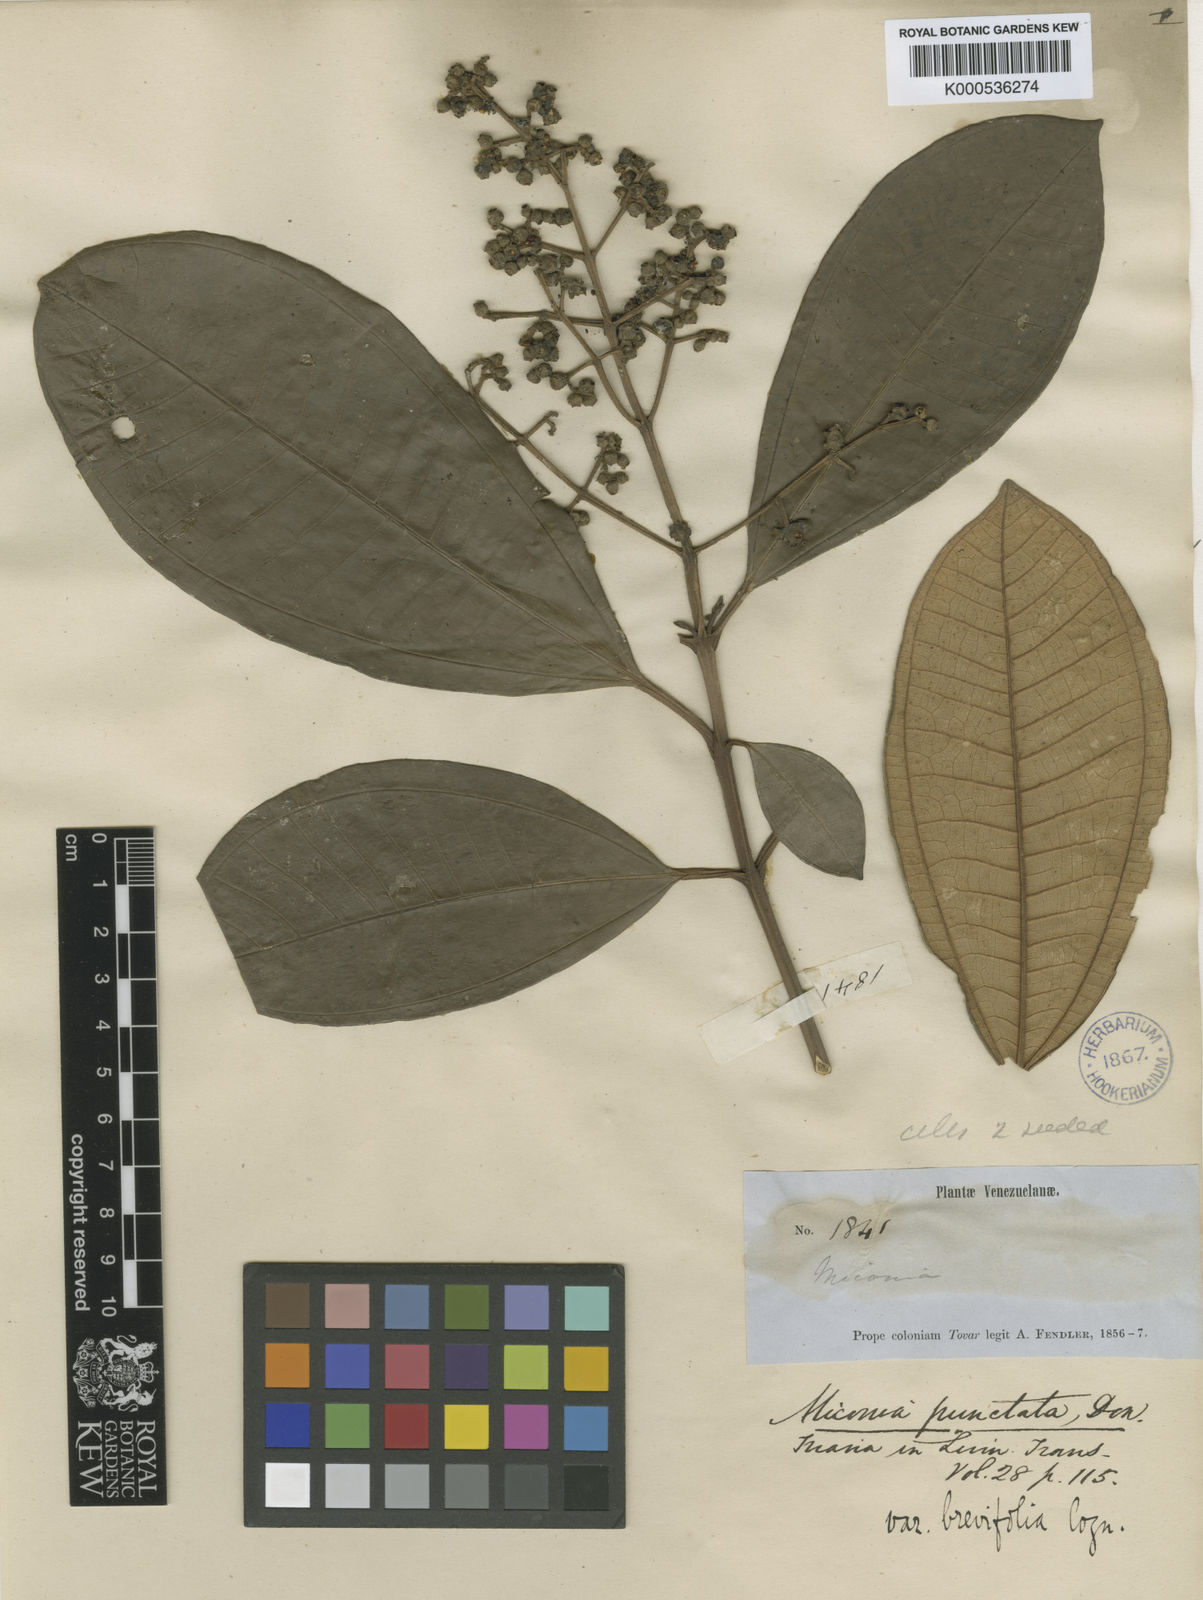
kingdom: Plantae
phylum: Tracheophyta
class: Magnoliopsida
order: Myrtales
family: Melastomataceae
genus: Miconia
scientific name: Miconia
